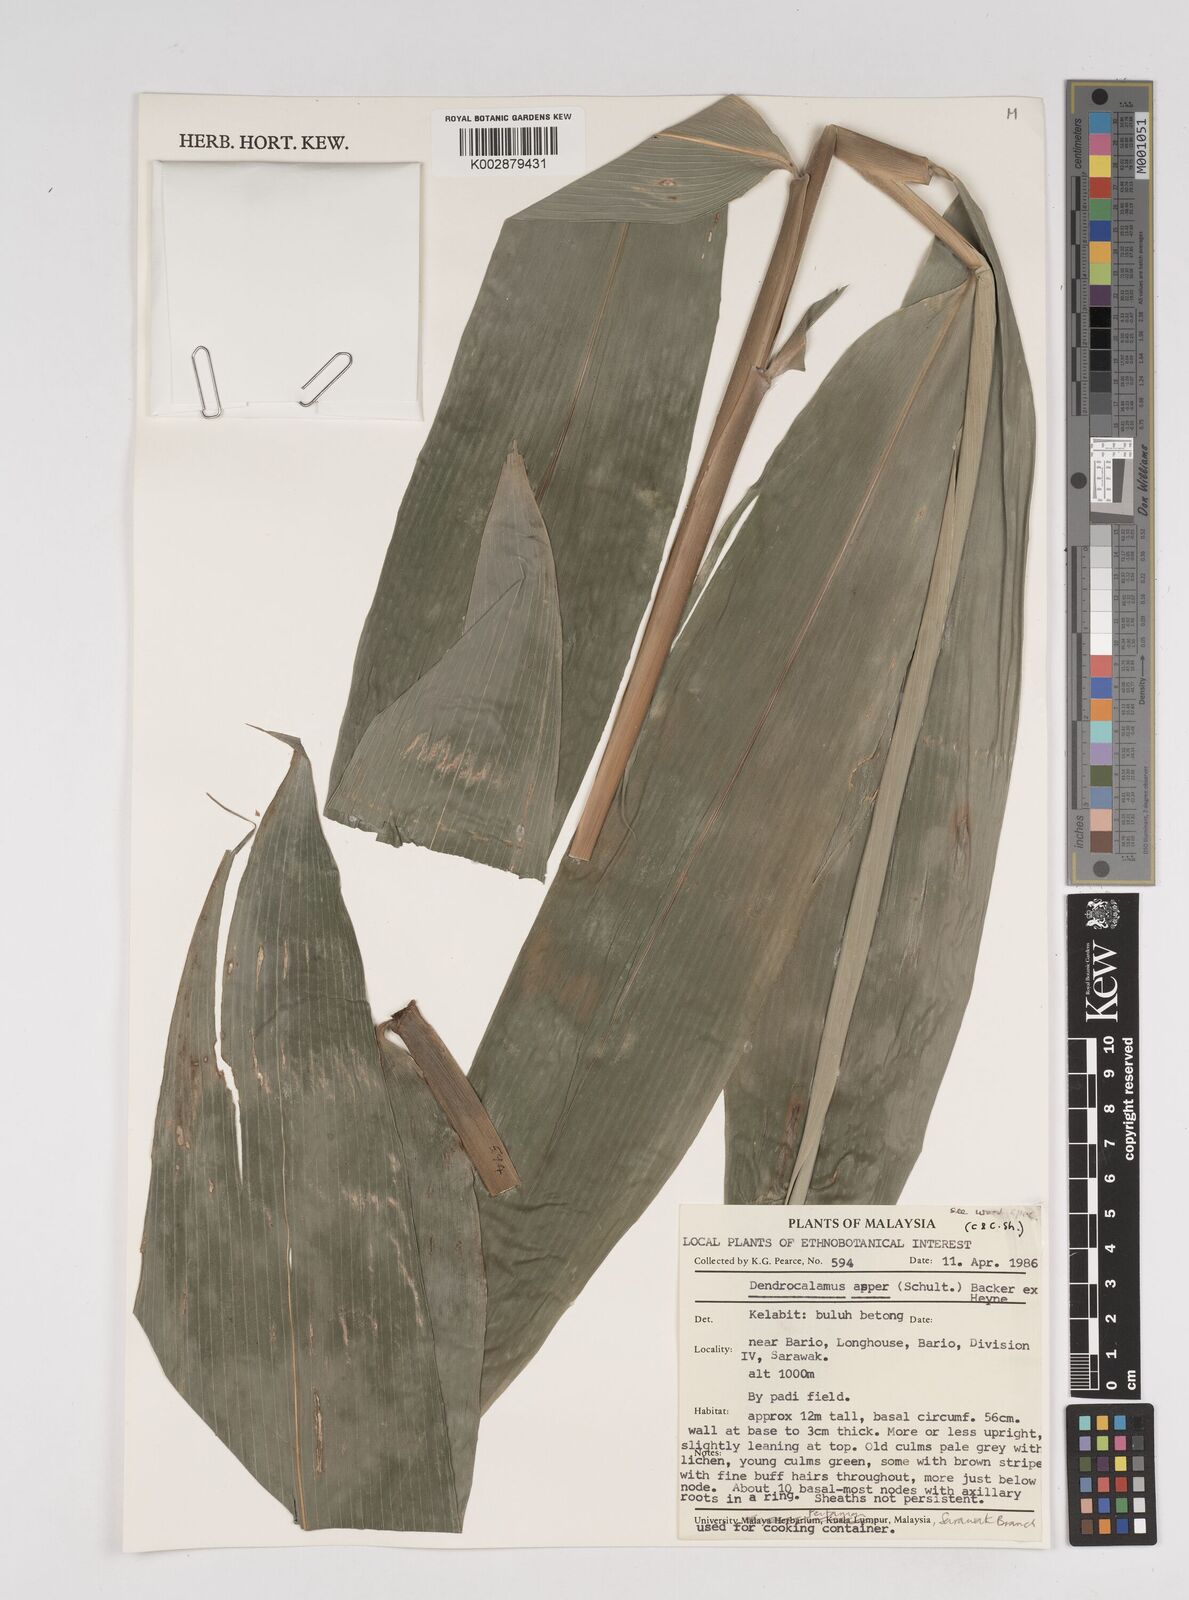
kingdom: Plantae
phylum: Tracheophyta
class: Liliopsida
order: Poales
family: Poaceae
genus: Dendrocalamus
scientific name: Dendrocalamus asper
